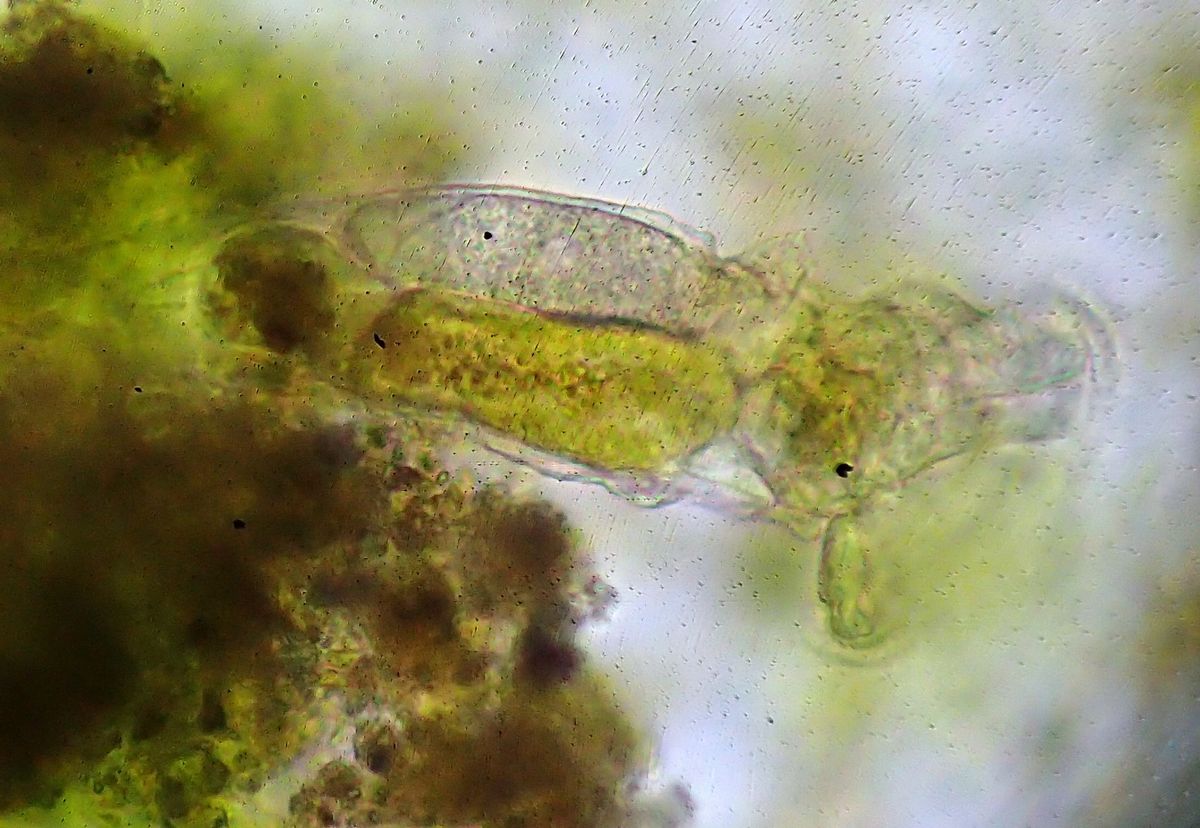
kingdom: Animalia
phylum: Rotifera
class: Eurotatoria
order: Flosculariaceae
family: Flosculariidae
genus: Ptygura
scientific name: Ptygura crystallina
